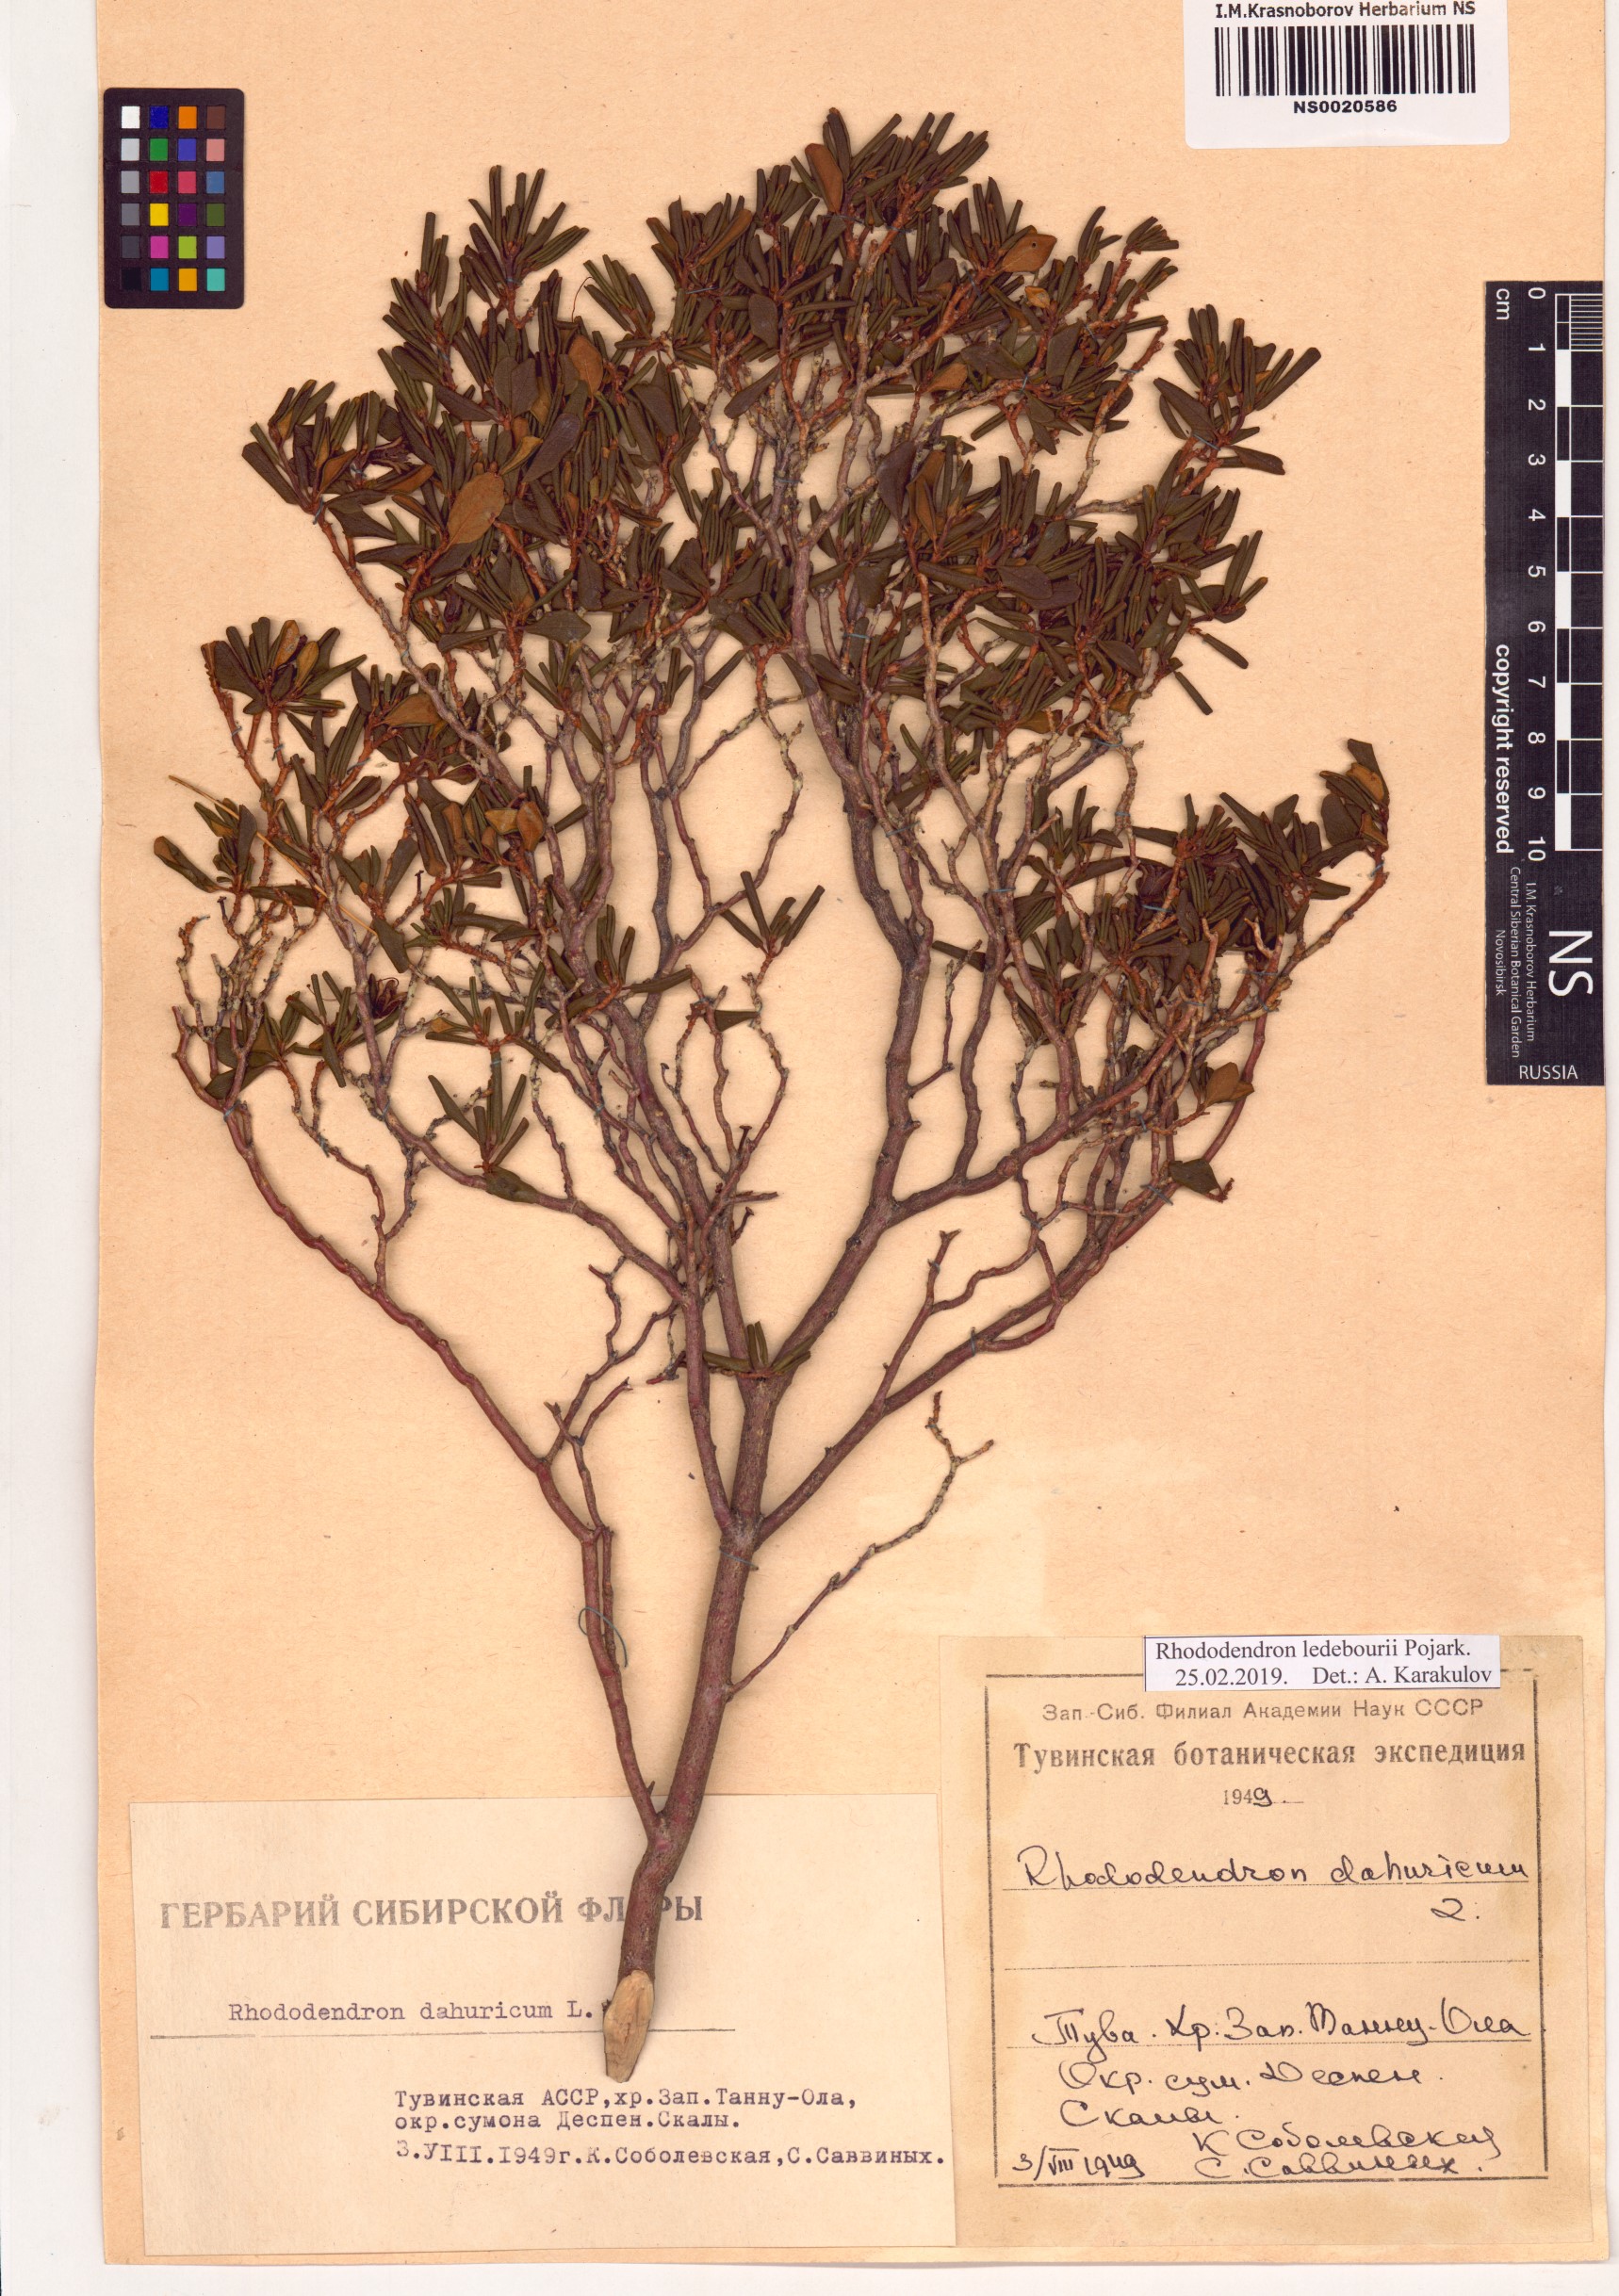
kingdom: Plantae
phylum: Tracheophyta
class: Magnoliopsida
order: Ericales
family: Ericaceae
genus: Rhododendron
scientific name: Rhododendron dauricum
